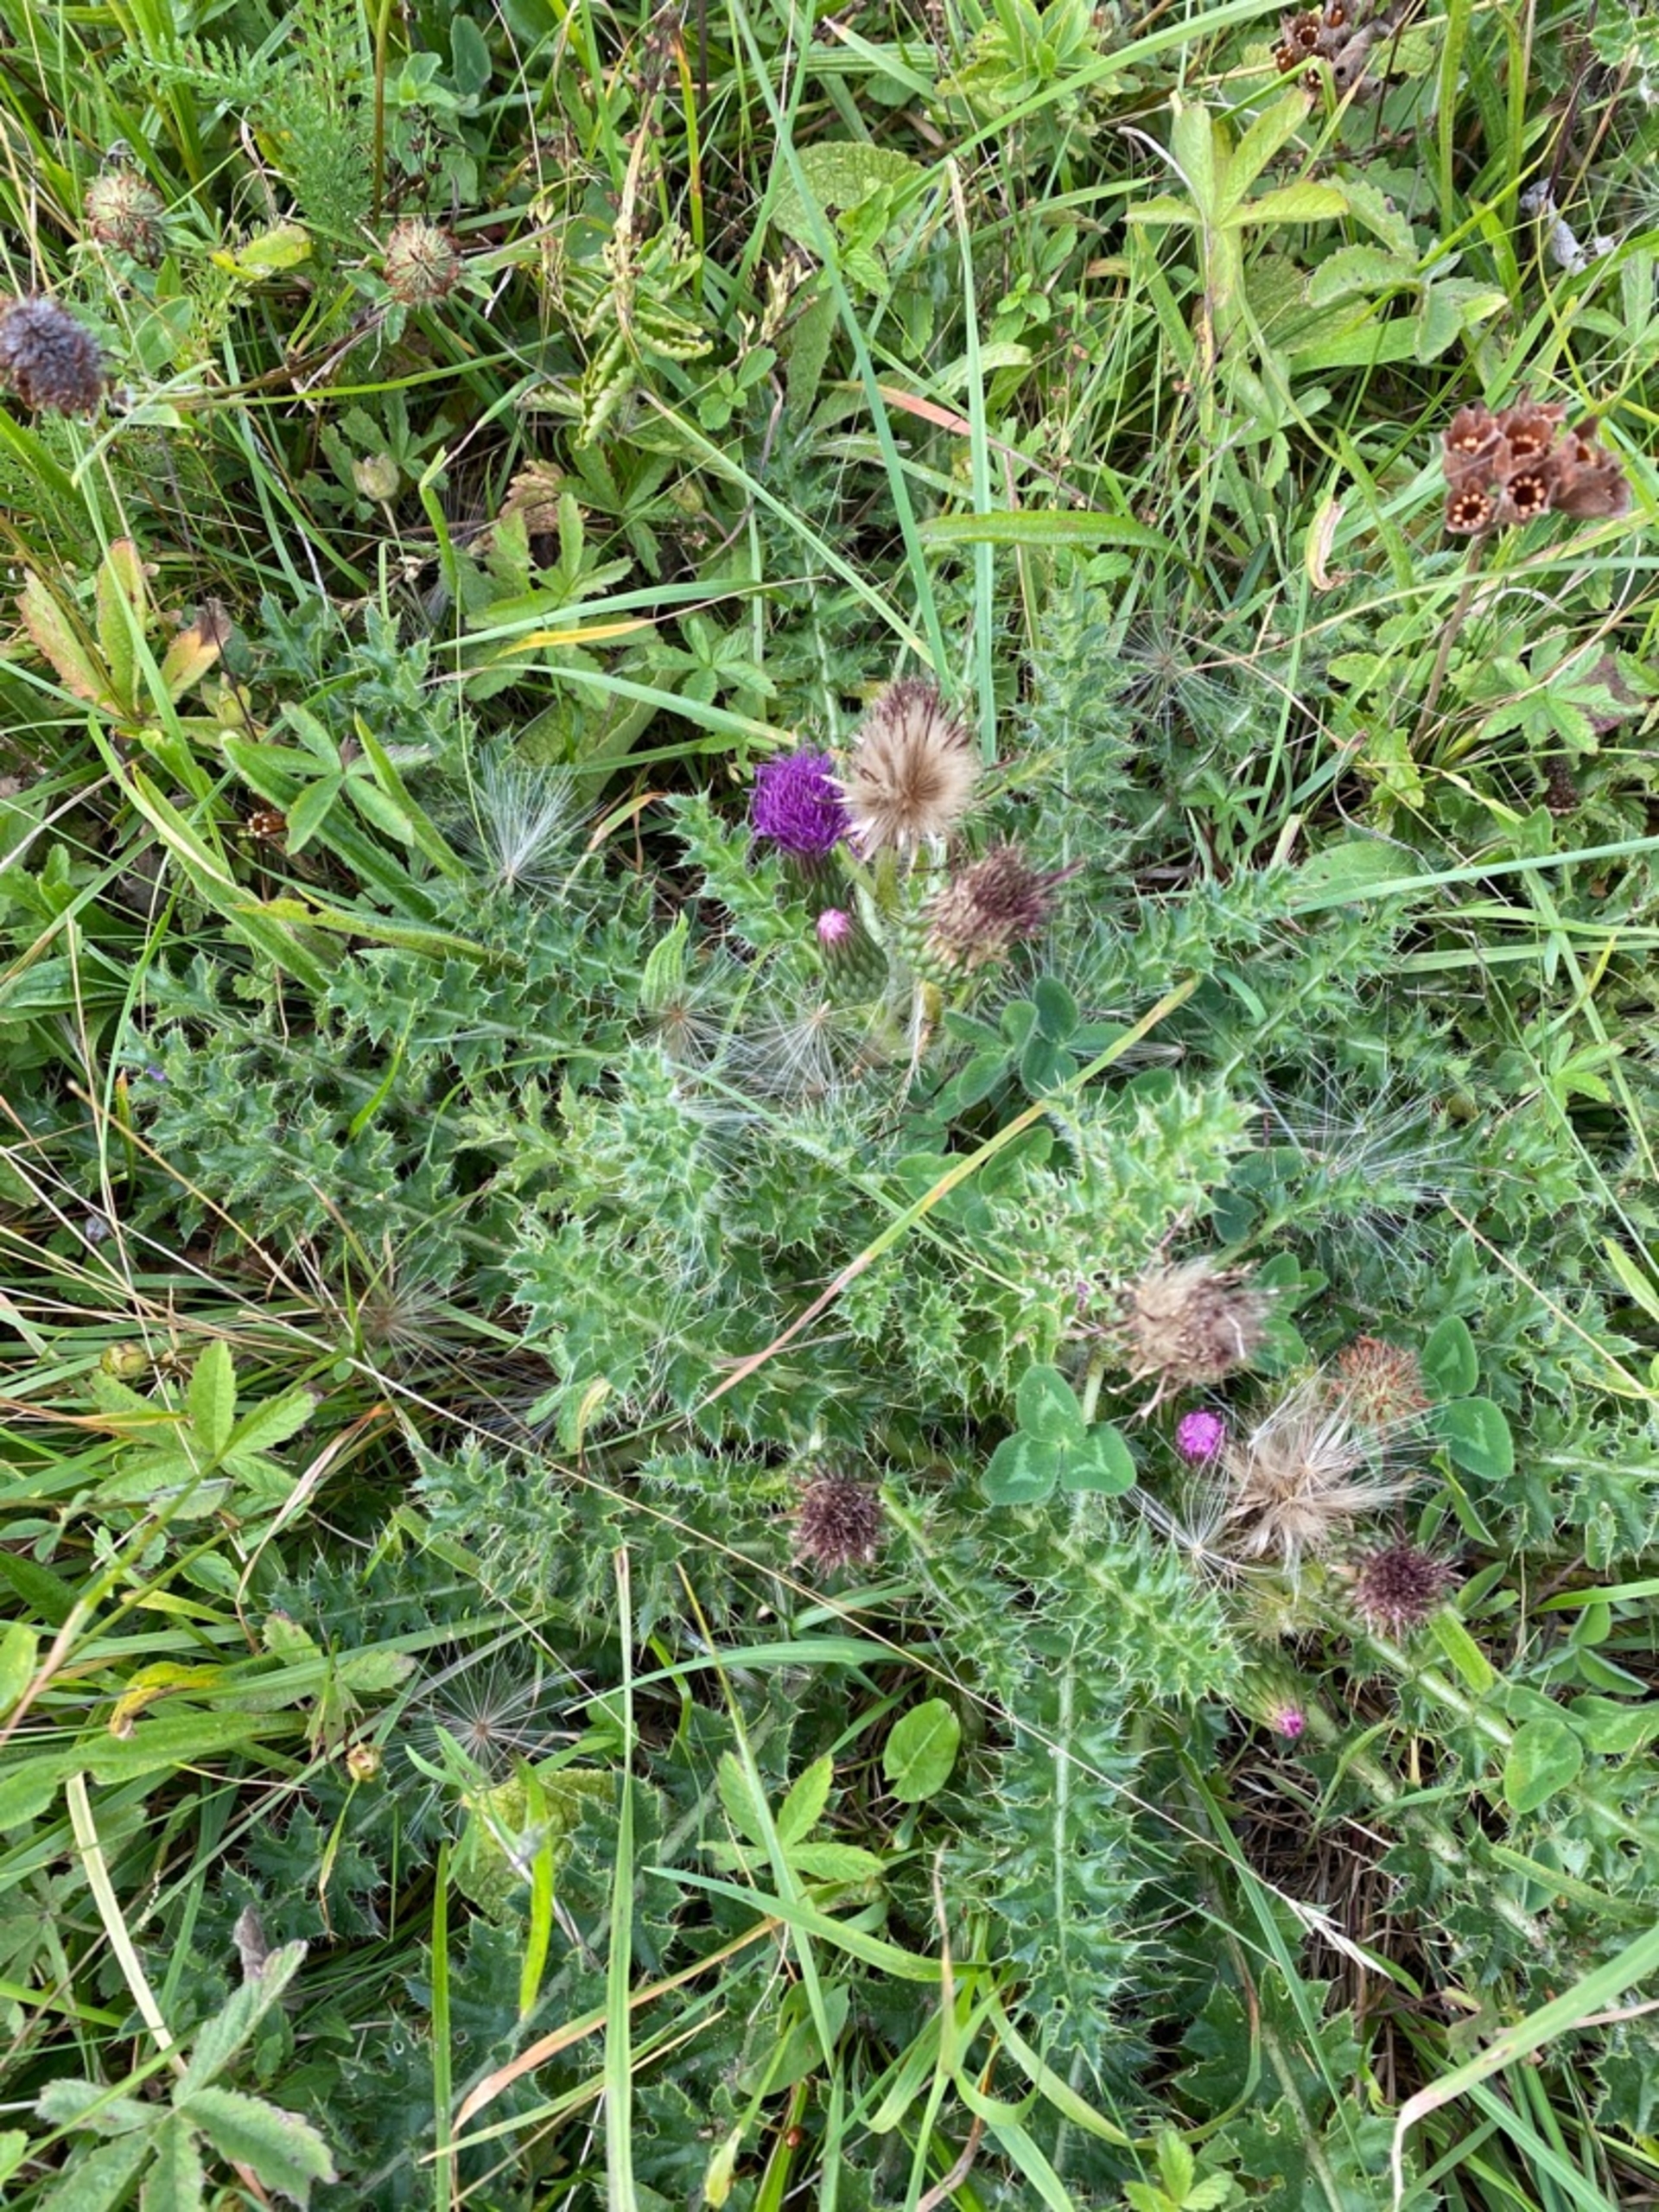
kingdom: Plantae
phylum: Tracheophyta
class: Magnoliopsida
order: Asterales
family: Asteraceae
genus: Cirsium
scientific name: Cirsium acaule
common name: Lav tidsel
